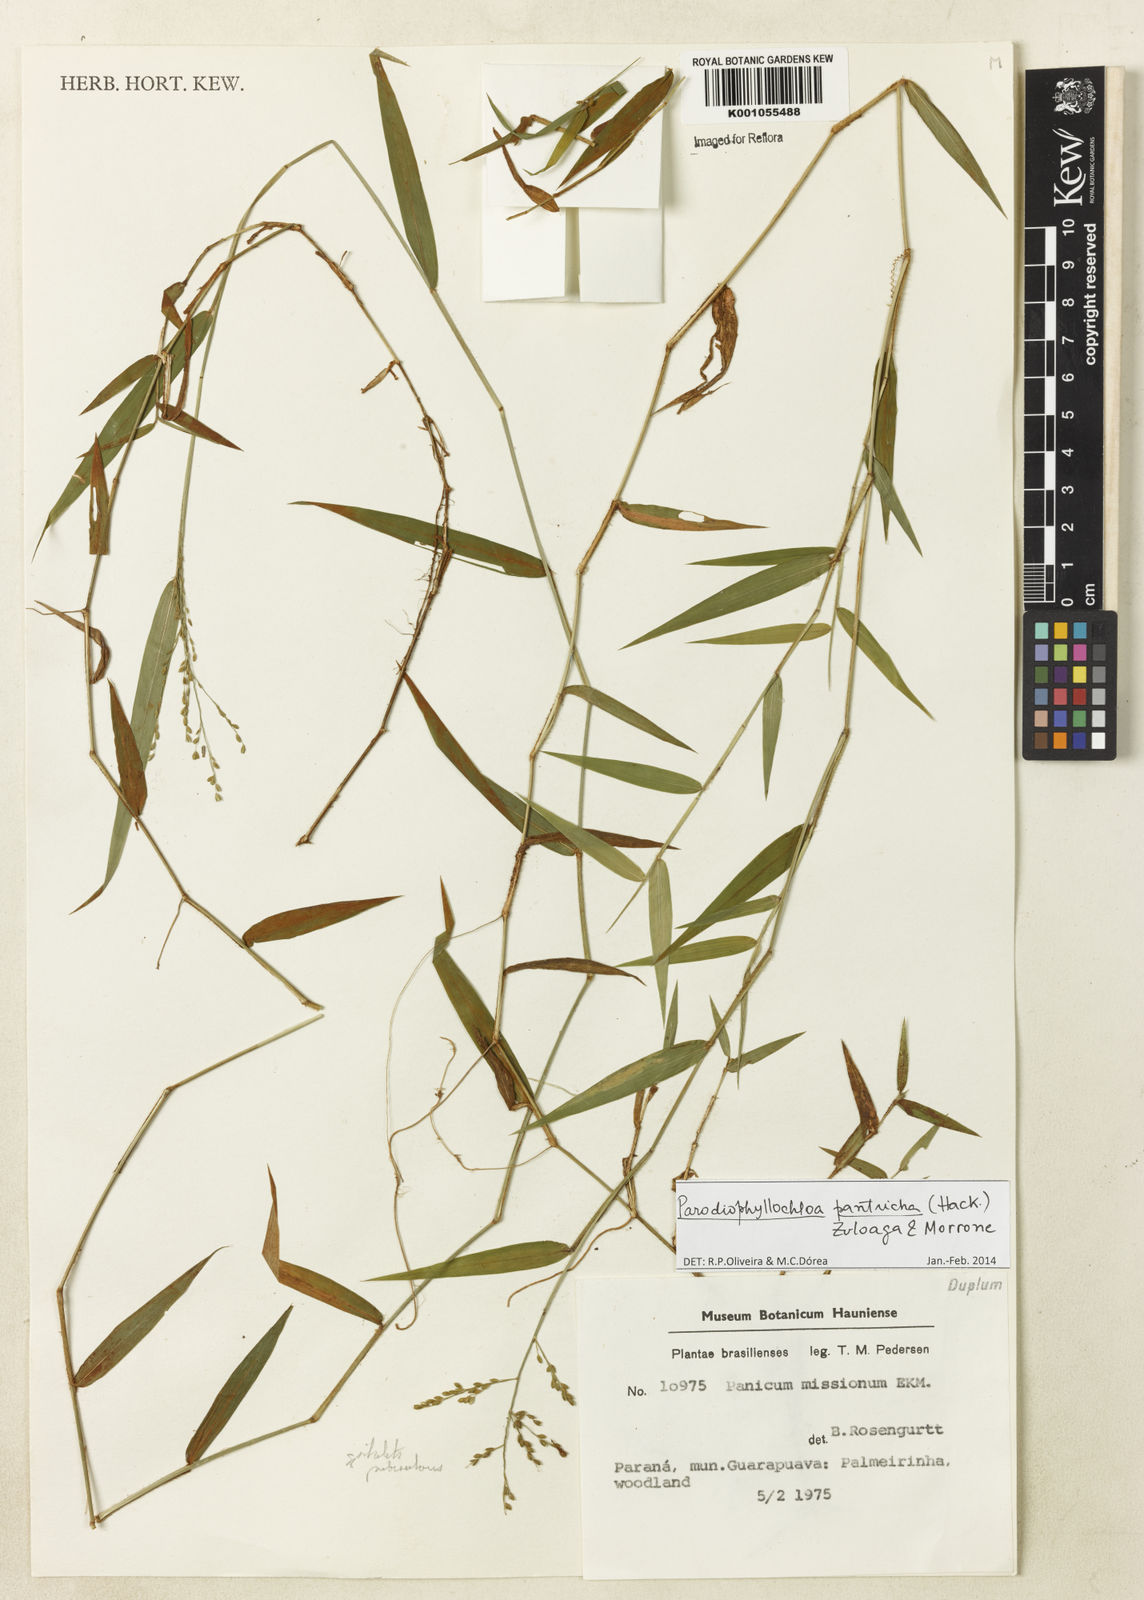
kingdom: Plantae
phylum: Tracheophyta
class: Liliopsida
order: Poales
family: Poaceae
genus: Parodiophyllochloa
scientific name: Parodiophyllochloa pantricha
